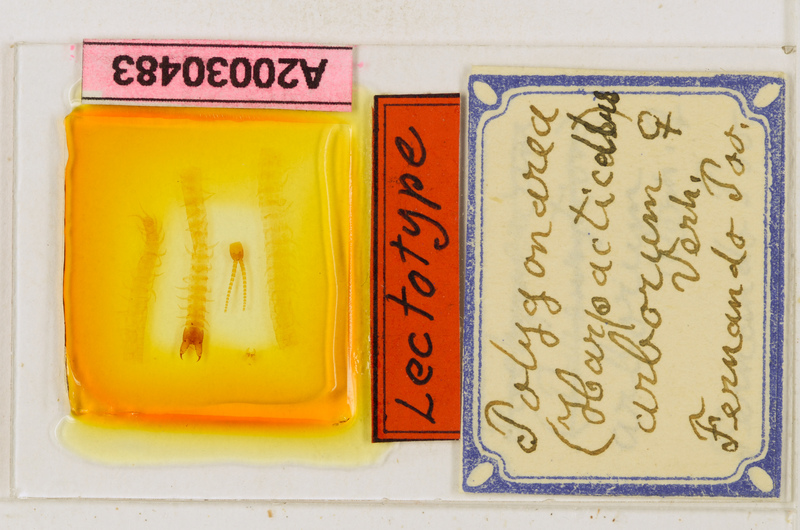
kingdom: Animalia
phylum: Arthropoda
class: Chilopoda
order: Geophilomorpha
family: Geophilidae
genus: Polygonarea
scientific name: Polygonarea
